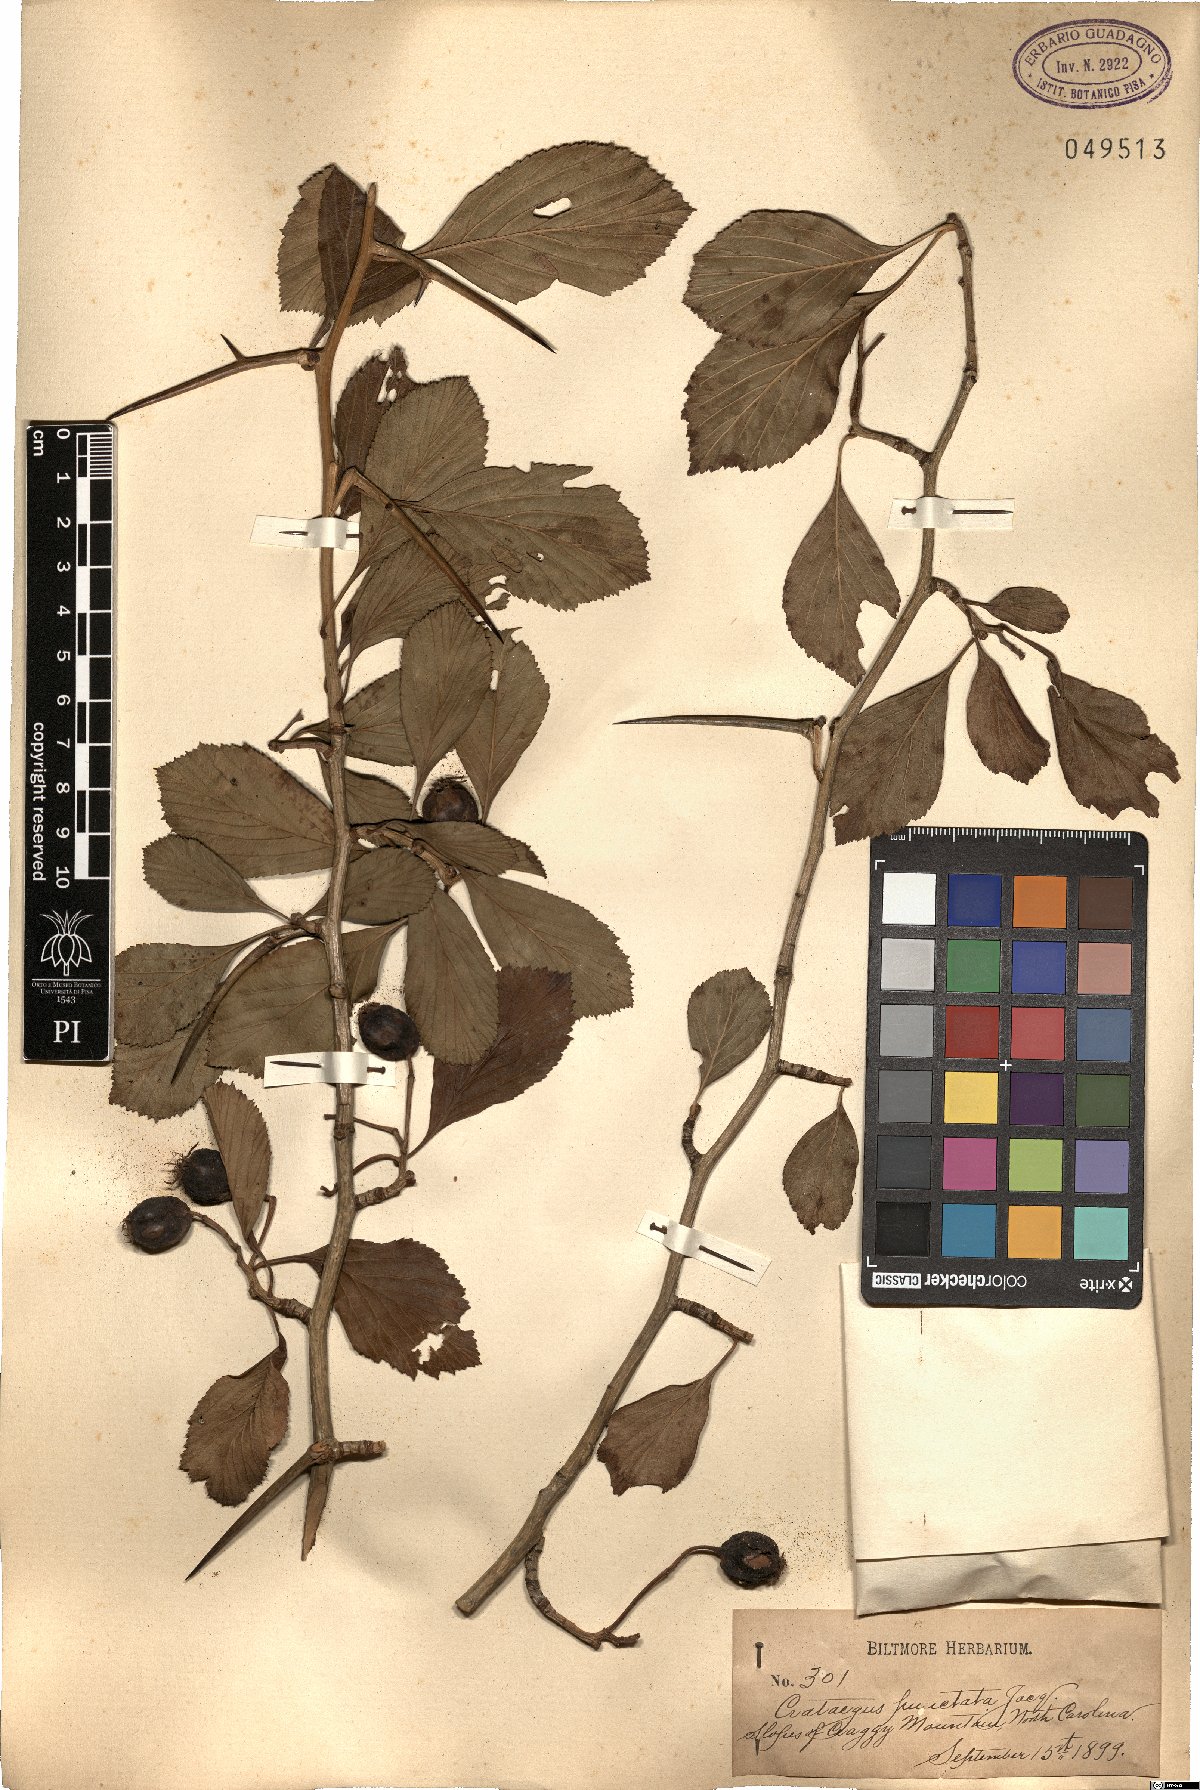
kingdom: Plantae
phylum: Tracheophyta
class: Magnoliopsida
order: Rosales
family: Rosaceae
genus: Crataegus
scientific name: Crataegus punctata
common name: Dotted hawthorn
